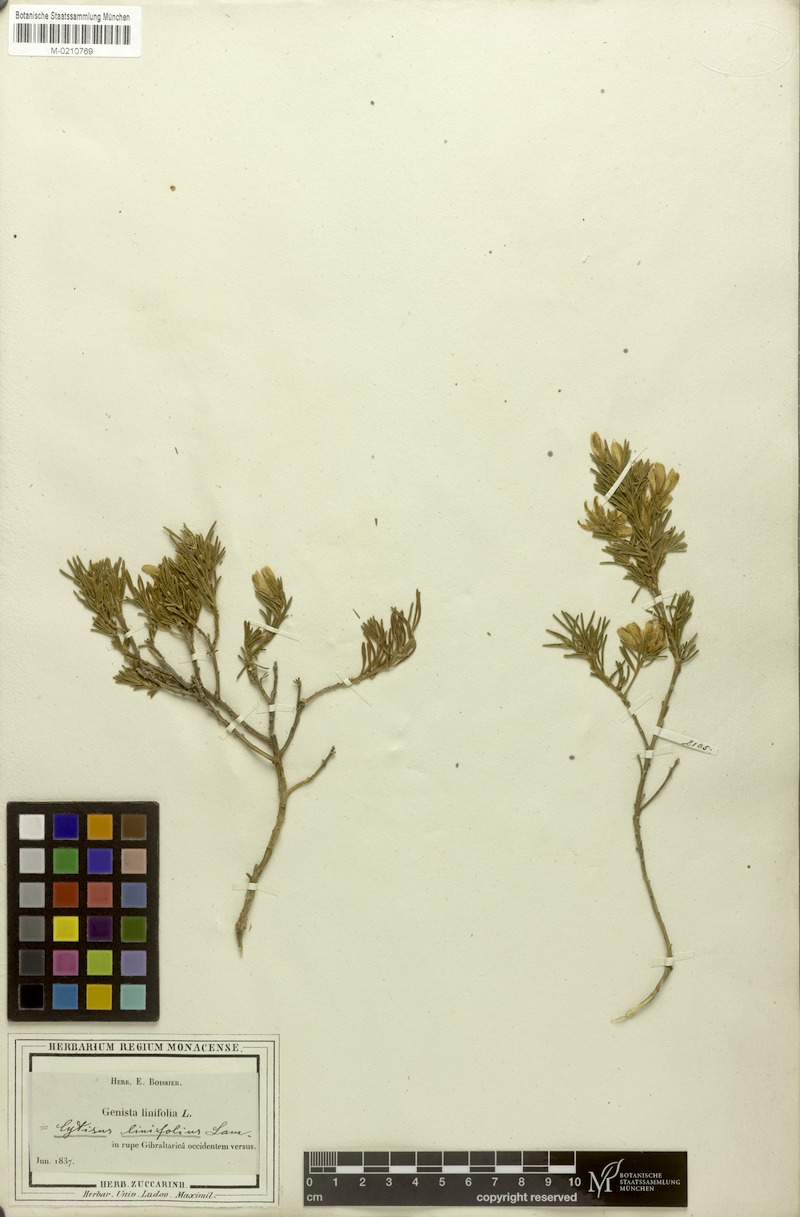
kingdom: Plantae
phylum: Tracheophyta
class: Magnoliopsida
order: Fabales
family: Fabaceae
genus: Genista
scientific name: Genista linifolia
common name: Mediterranean broom
